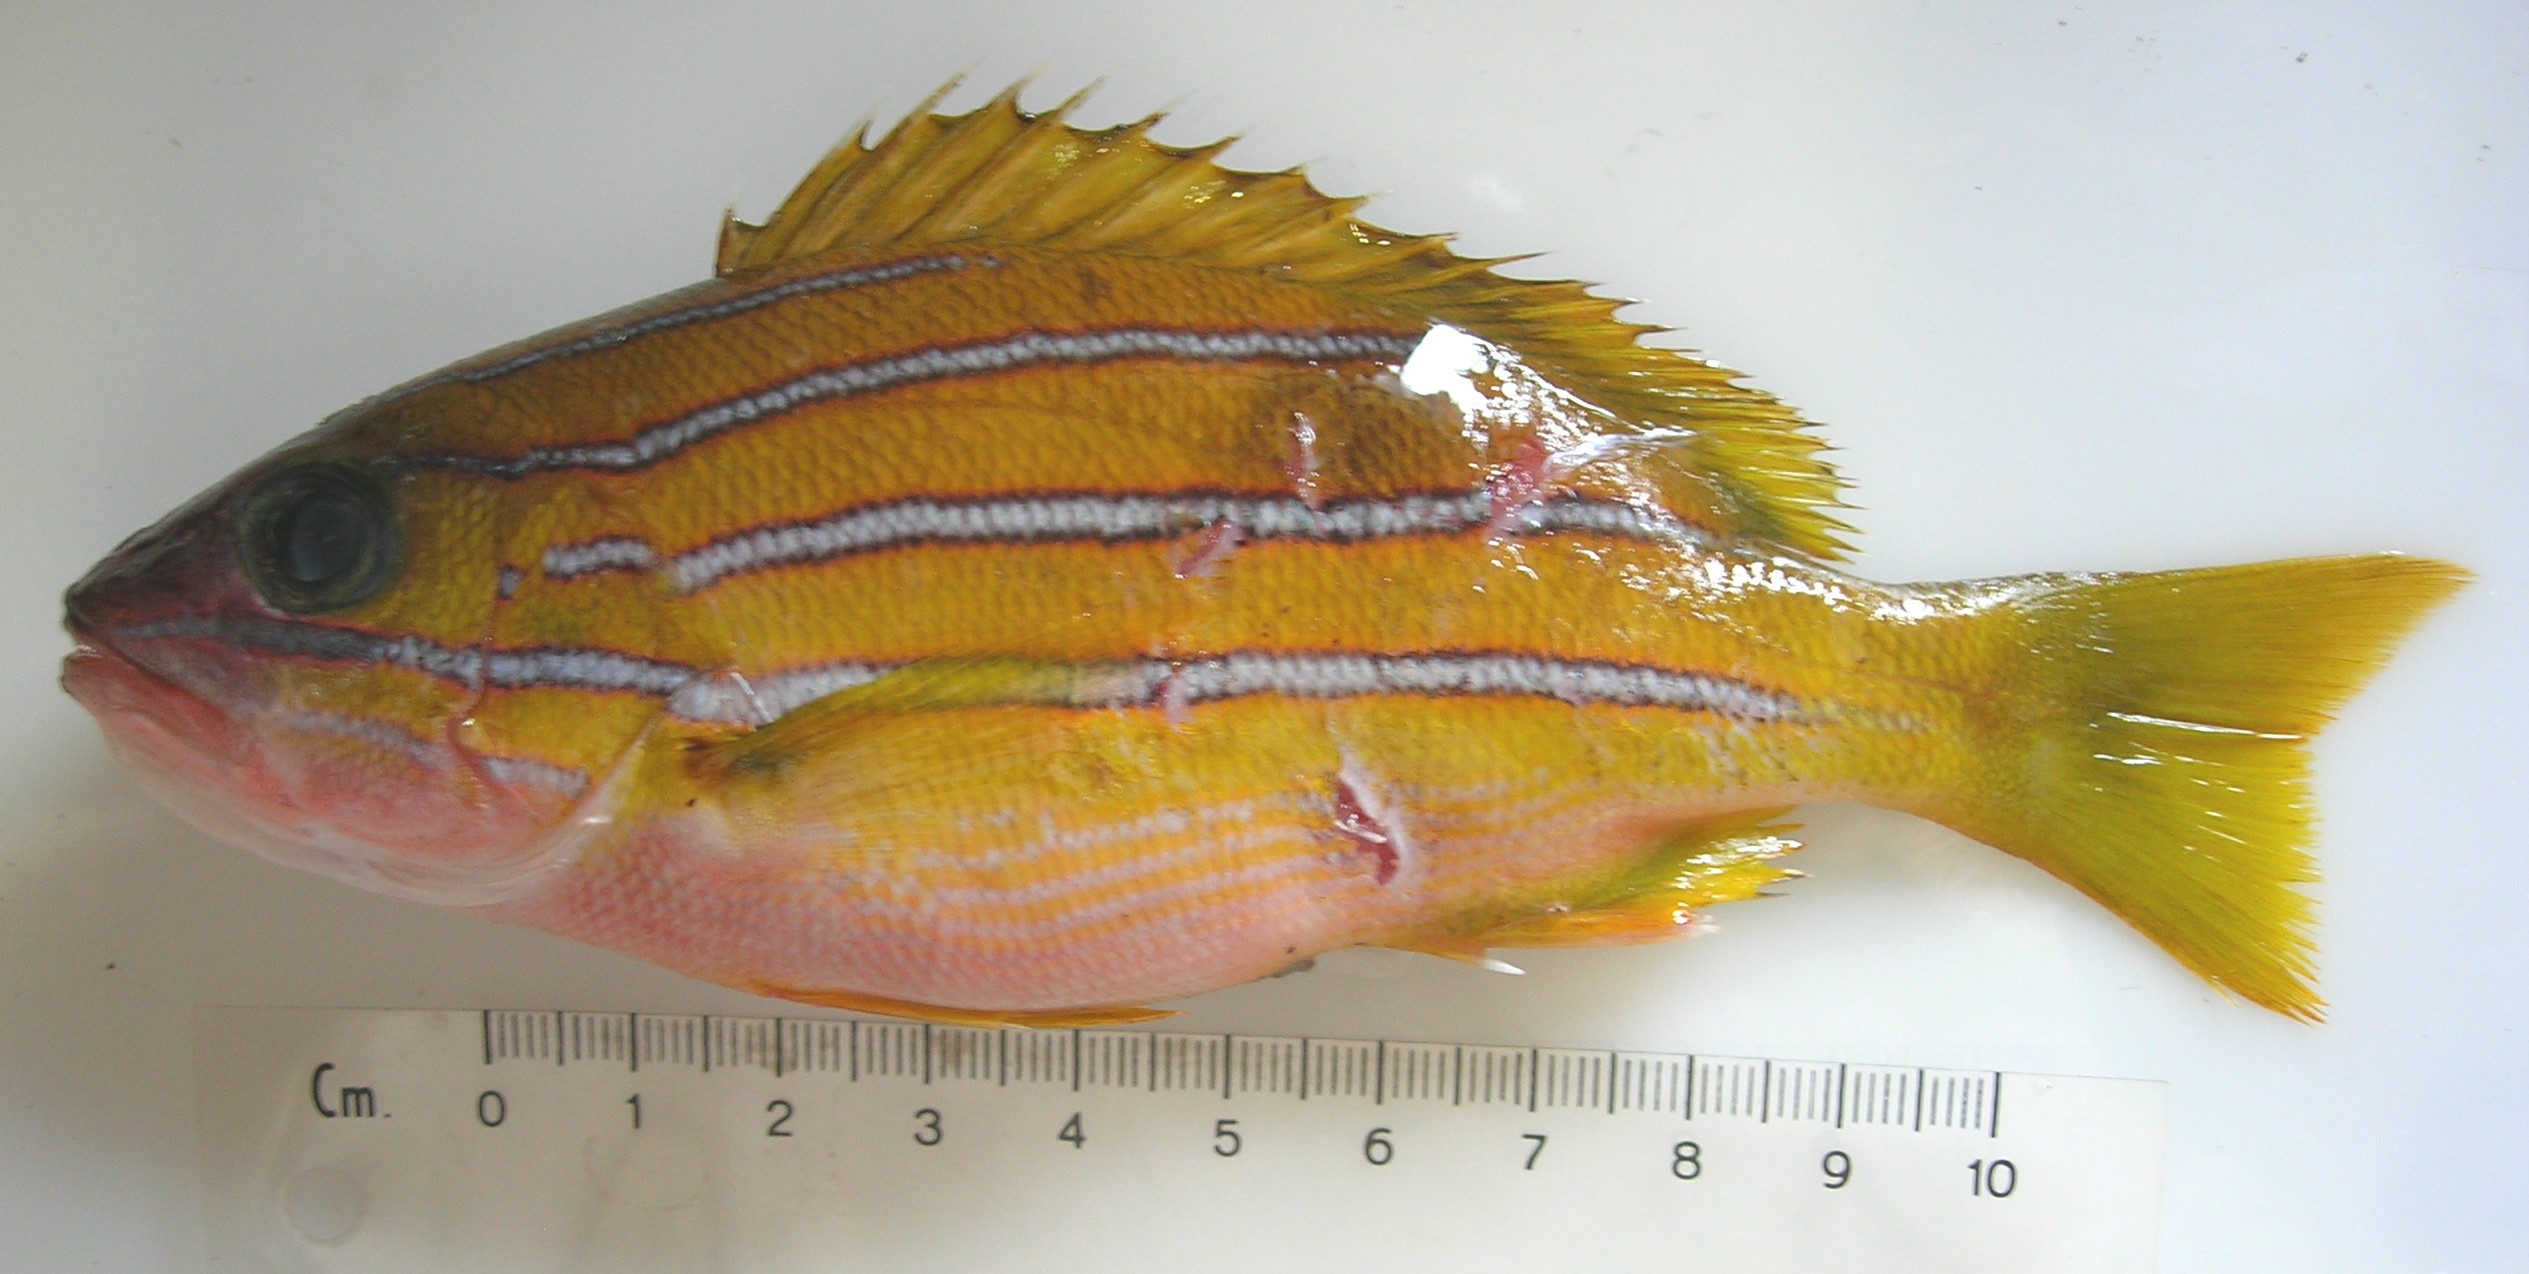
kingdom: Animalia
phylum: Chordata
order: Perciformes
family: Lutjanidae
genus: Lutjanus
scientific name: Lutjanus kasmira
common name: Common bluestripe snapper
